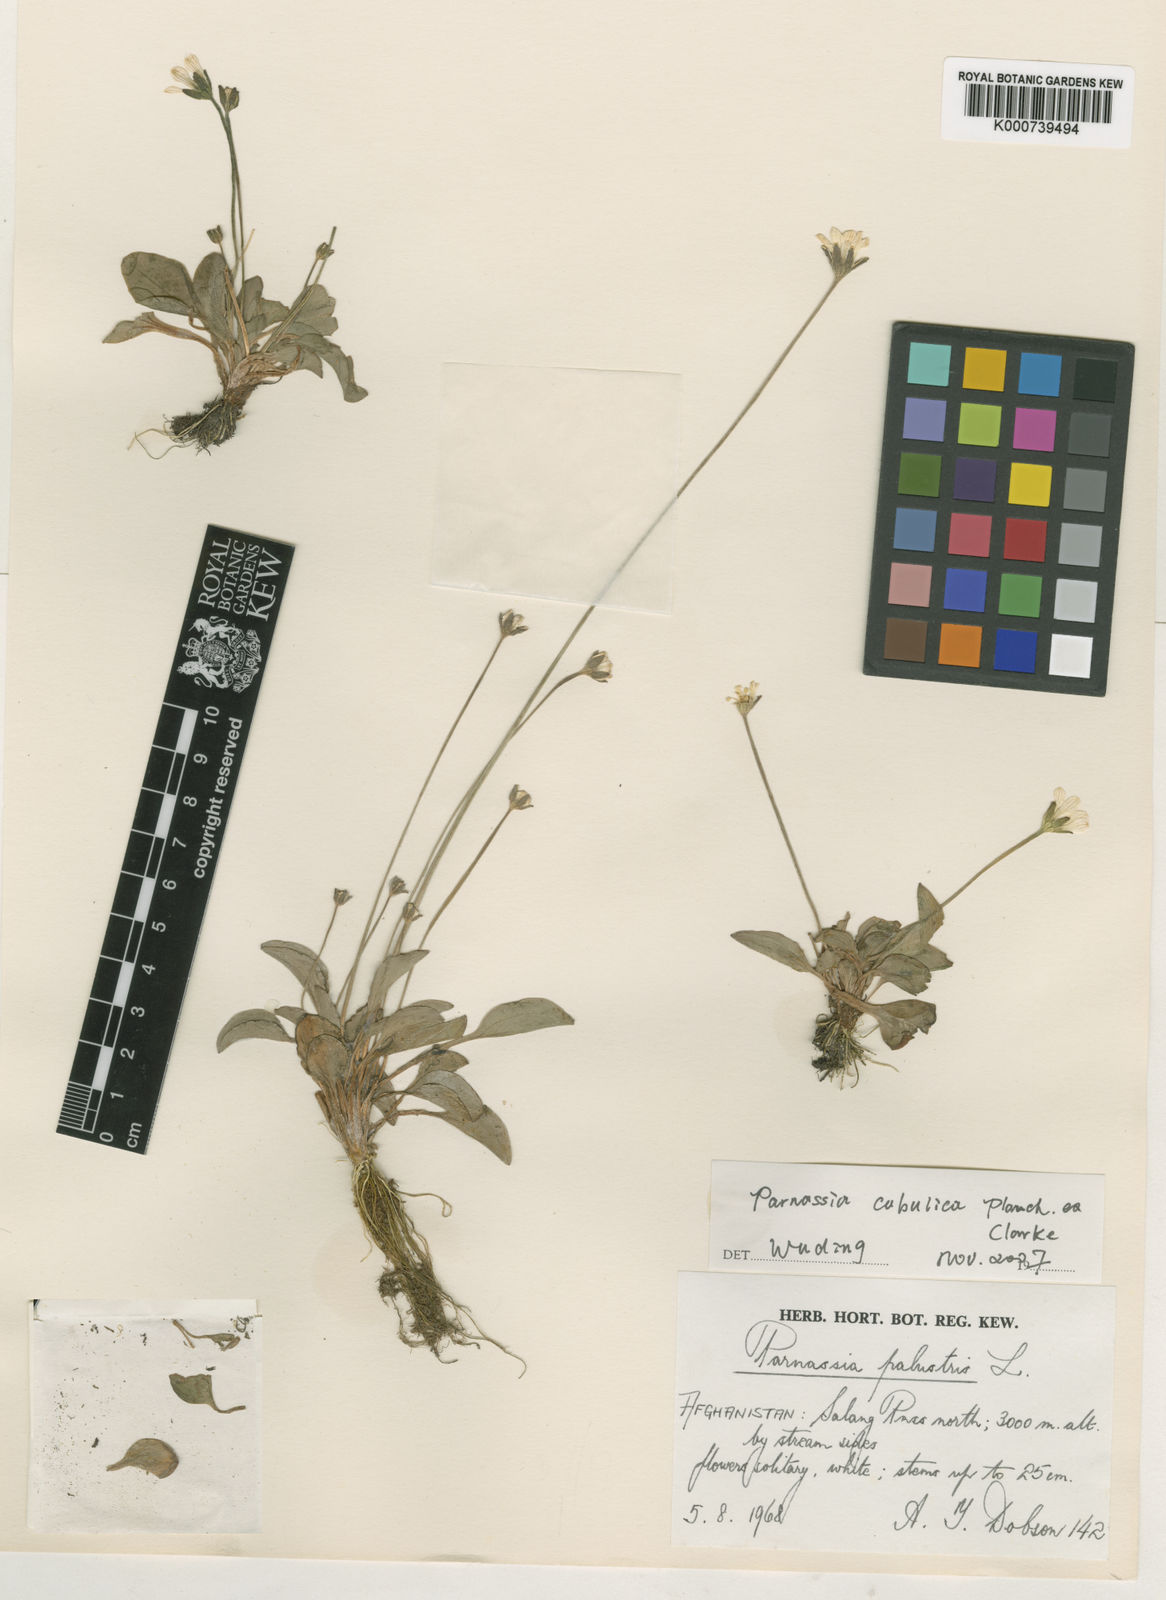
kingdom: Plantae
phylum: Tracheophyta
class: Magnoliopsida
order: Celastrales
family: Parnassiaceae
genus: Parnassia
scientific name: Parnassia cabulica
